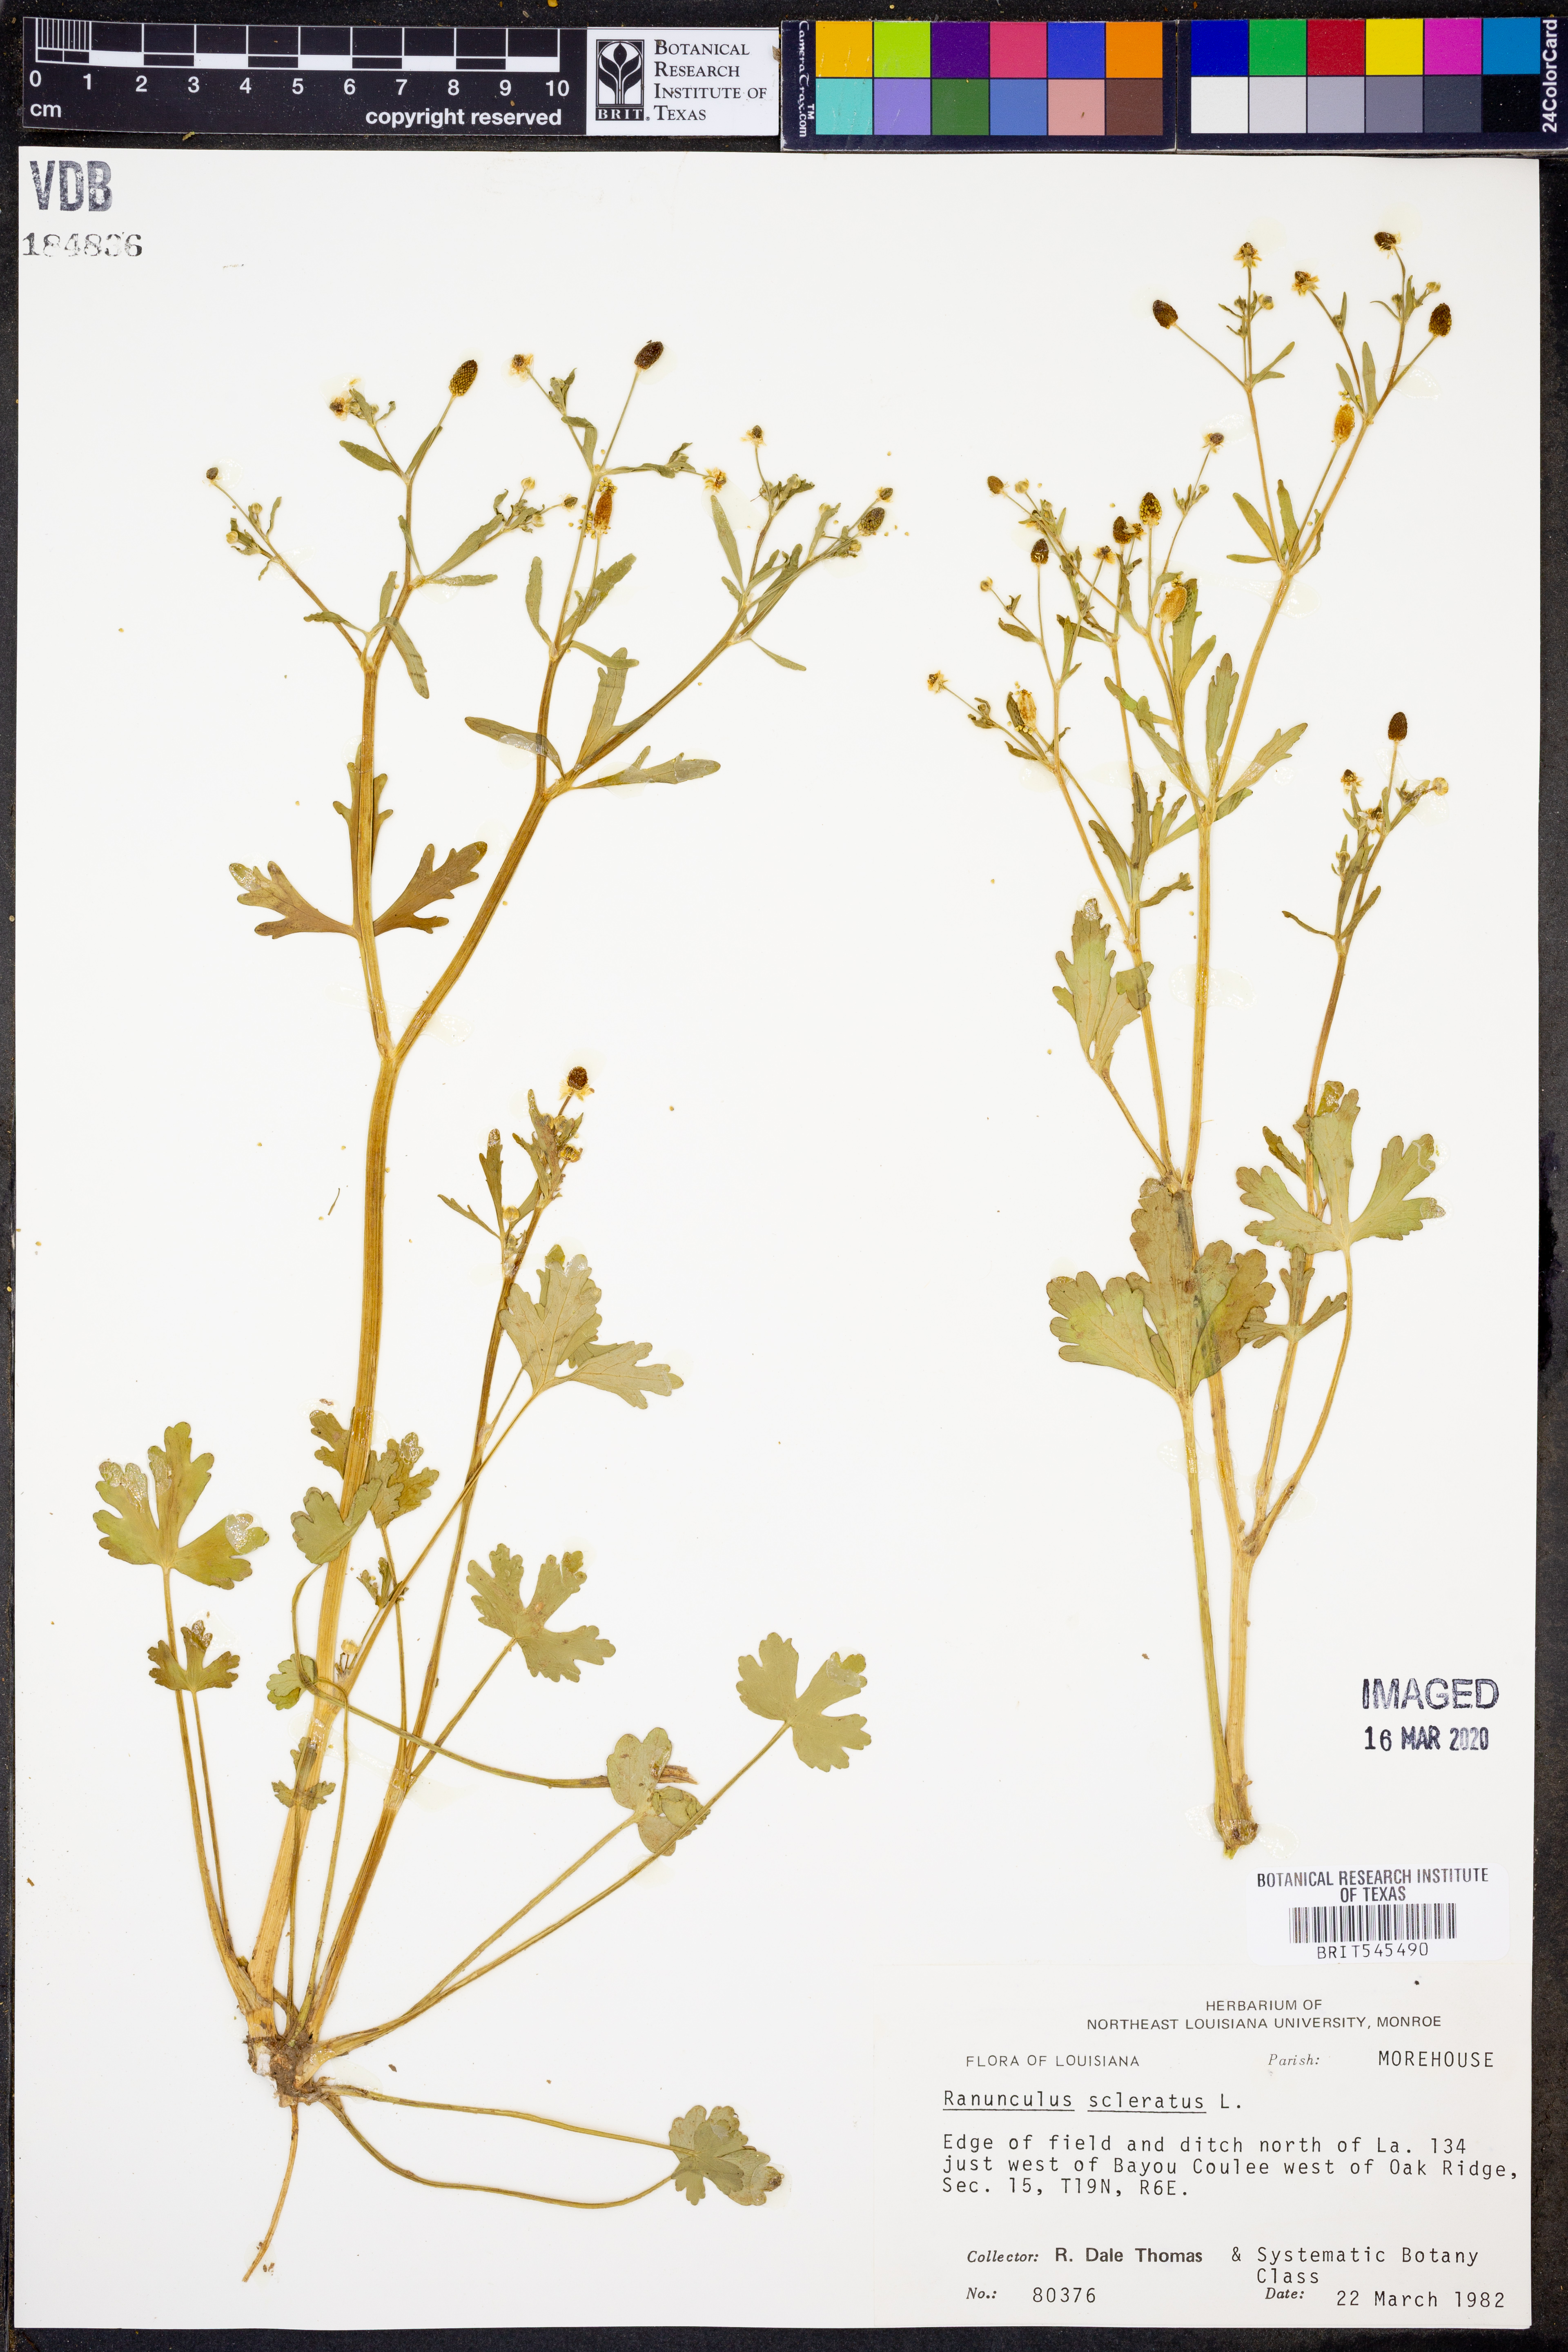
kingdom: Plantae
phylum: Tracheophyta
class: Magnoliopsida
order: Ranunculales
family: Ranunculaceae
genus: Ranunculus
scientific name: Ranunculus sceleratus
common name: Celery-leaved buttercup
